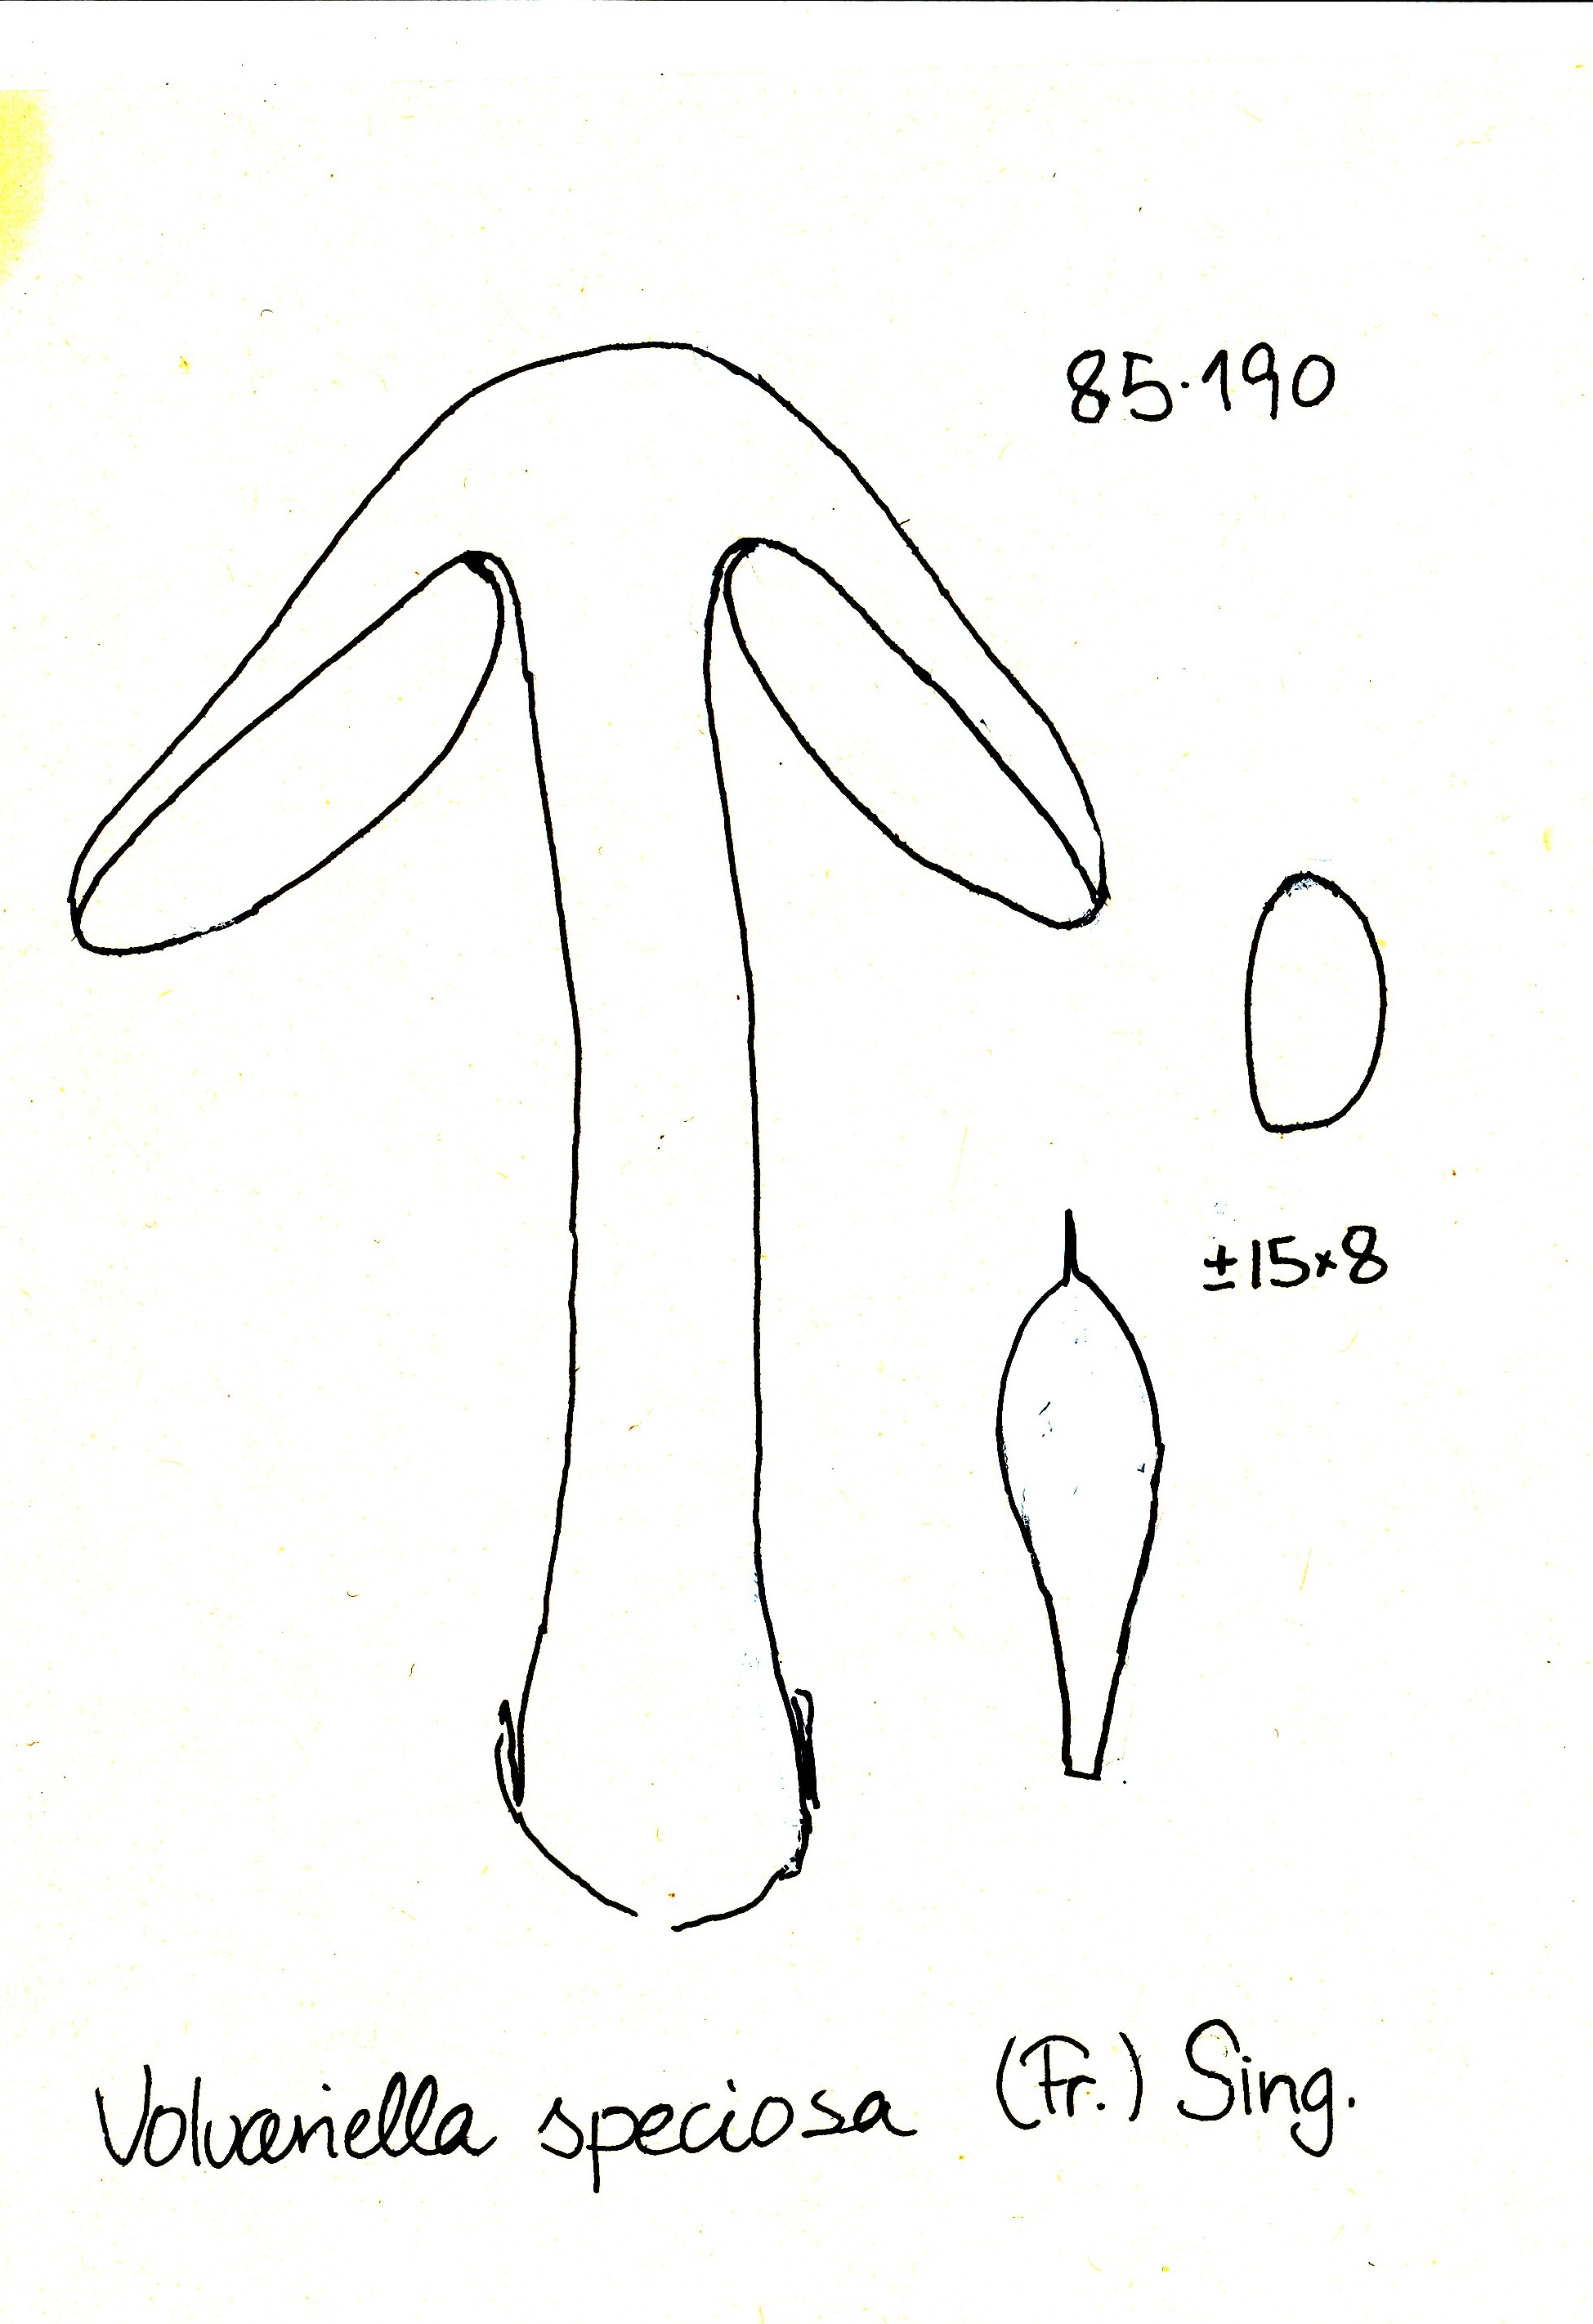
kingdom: Fungi
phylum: Basidiomycota
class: Agaricomycetes
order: Agaricales
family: Pluteaceae
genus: Volvopluteus
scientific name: Volvopluteus gloiocephalus
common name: høj posesvamp
